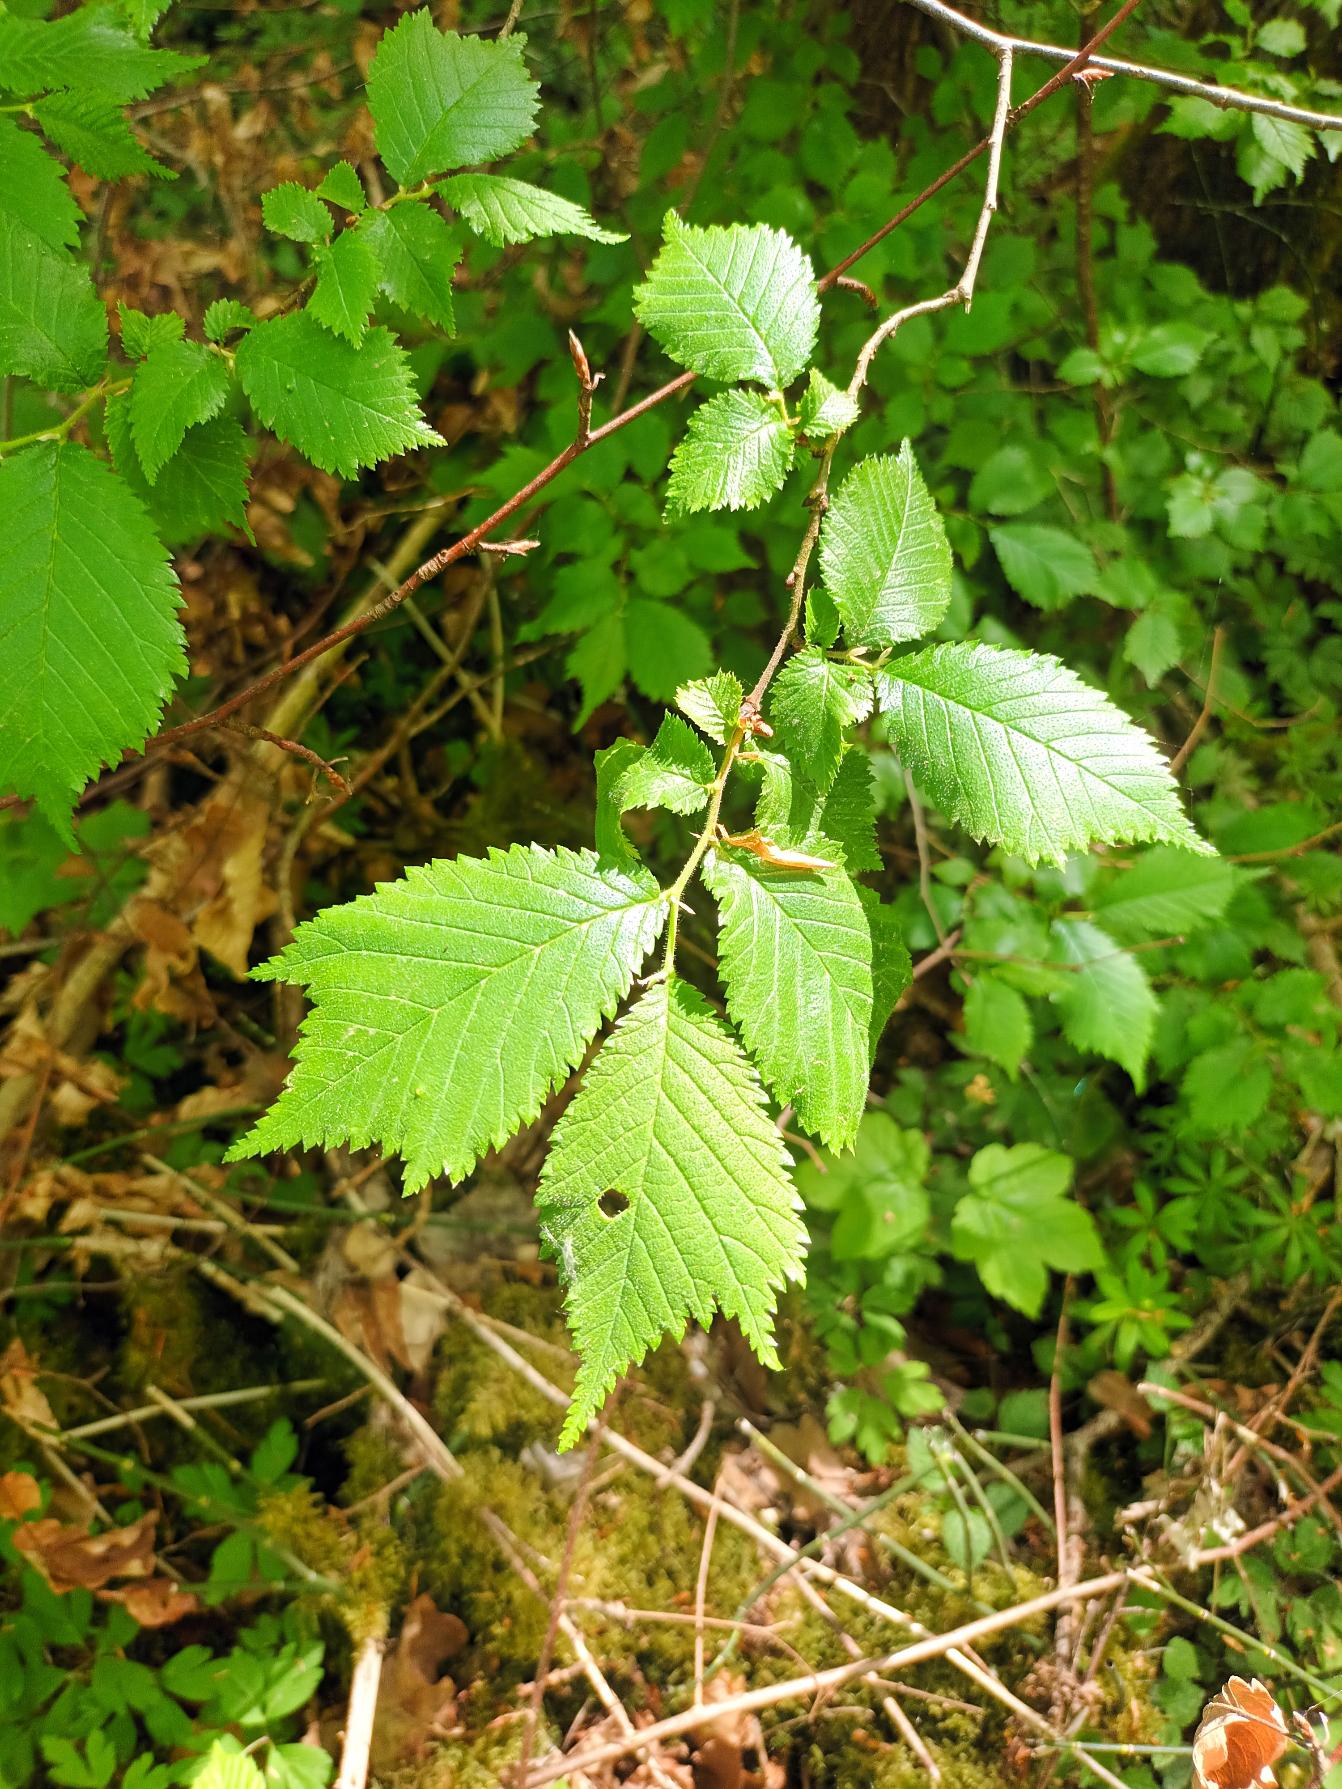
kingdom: Plantae
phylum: Tracheophyta
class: Magnoliopsida
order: Rosales
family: Ulmaceae
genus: Ulmus
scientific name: Ulmus glabra
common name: Skov-elm/storbladet elm
